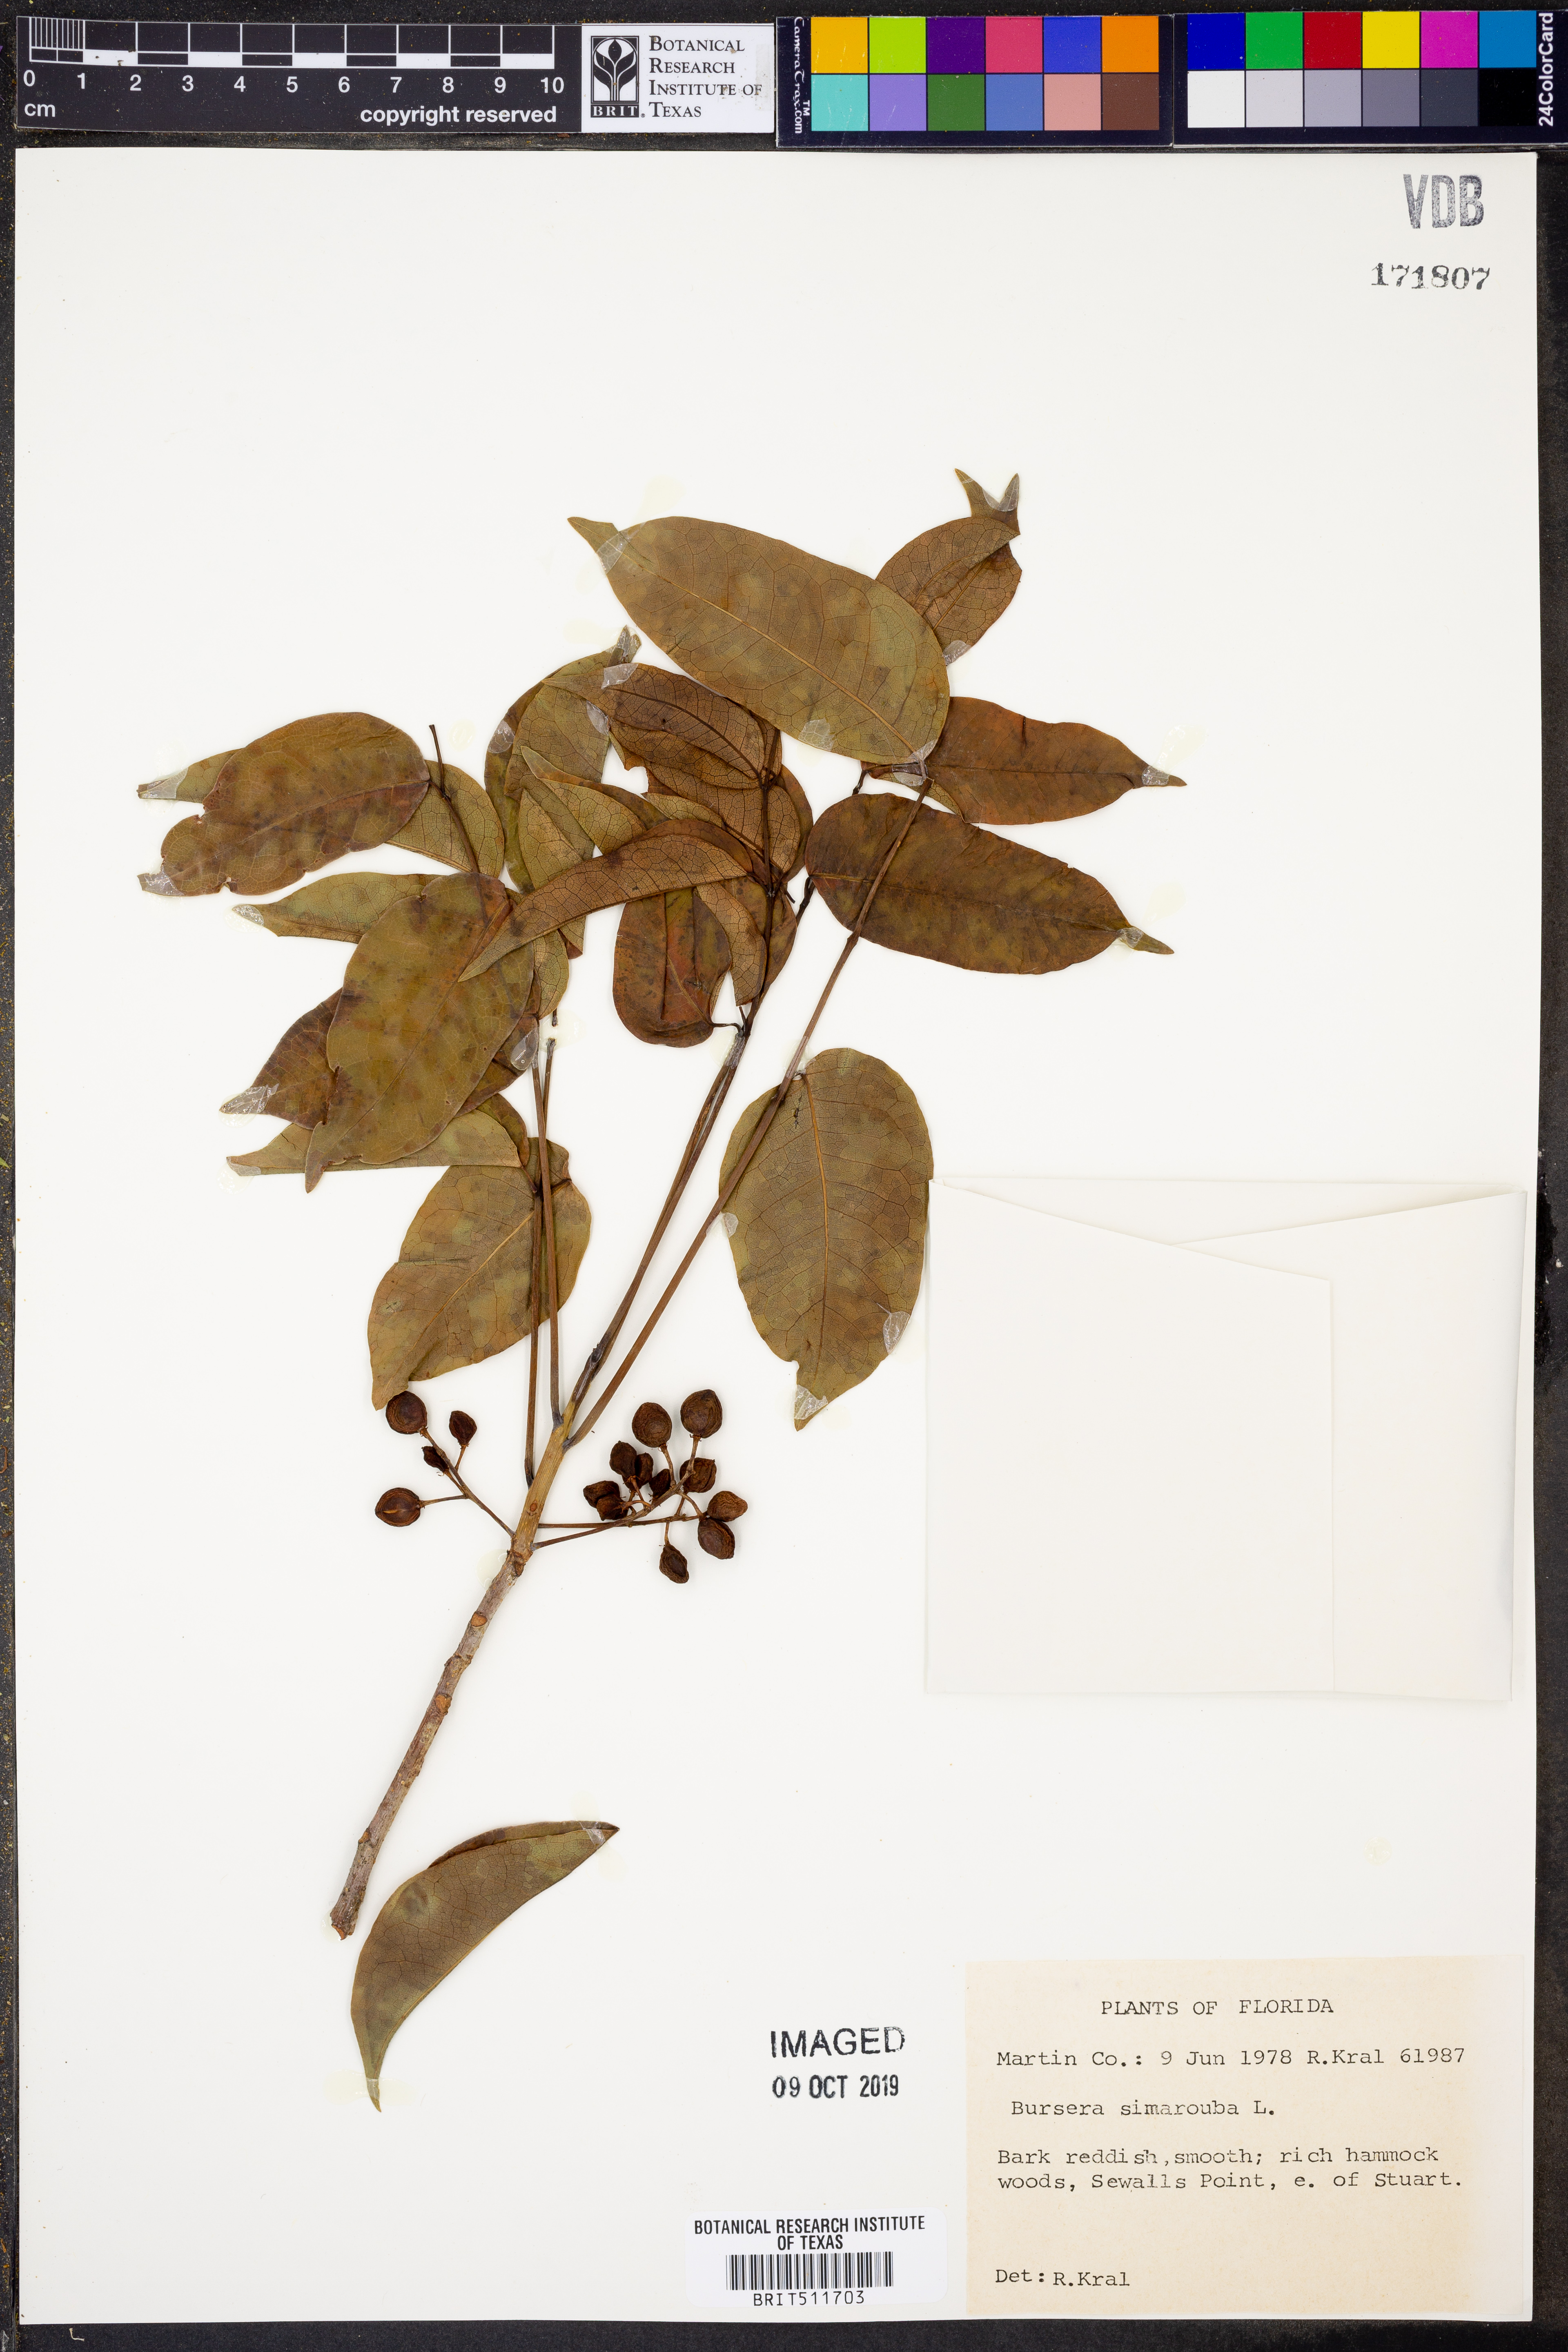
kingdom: Plantae
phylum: Tracheophyta
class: Magnoliopsida
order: Sapindales
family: Burseraceae
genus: Bursera
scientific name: Bursera simaruba
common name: Turpentine tree
